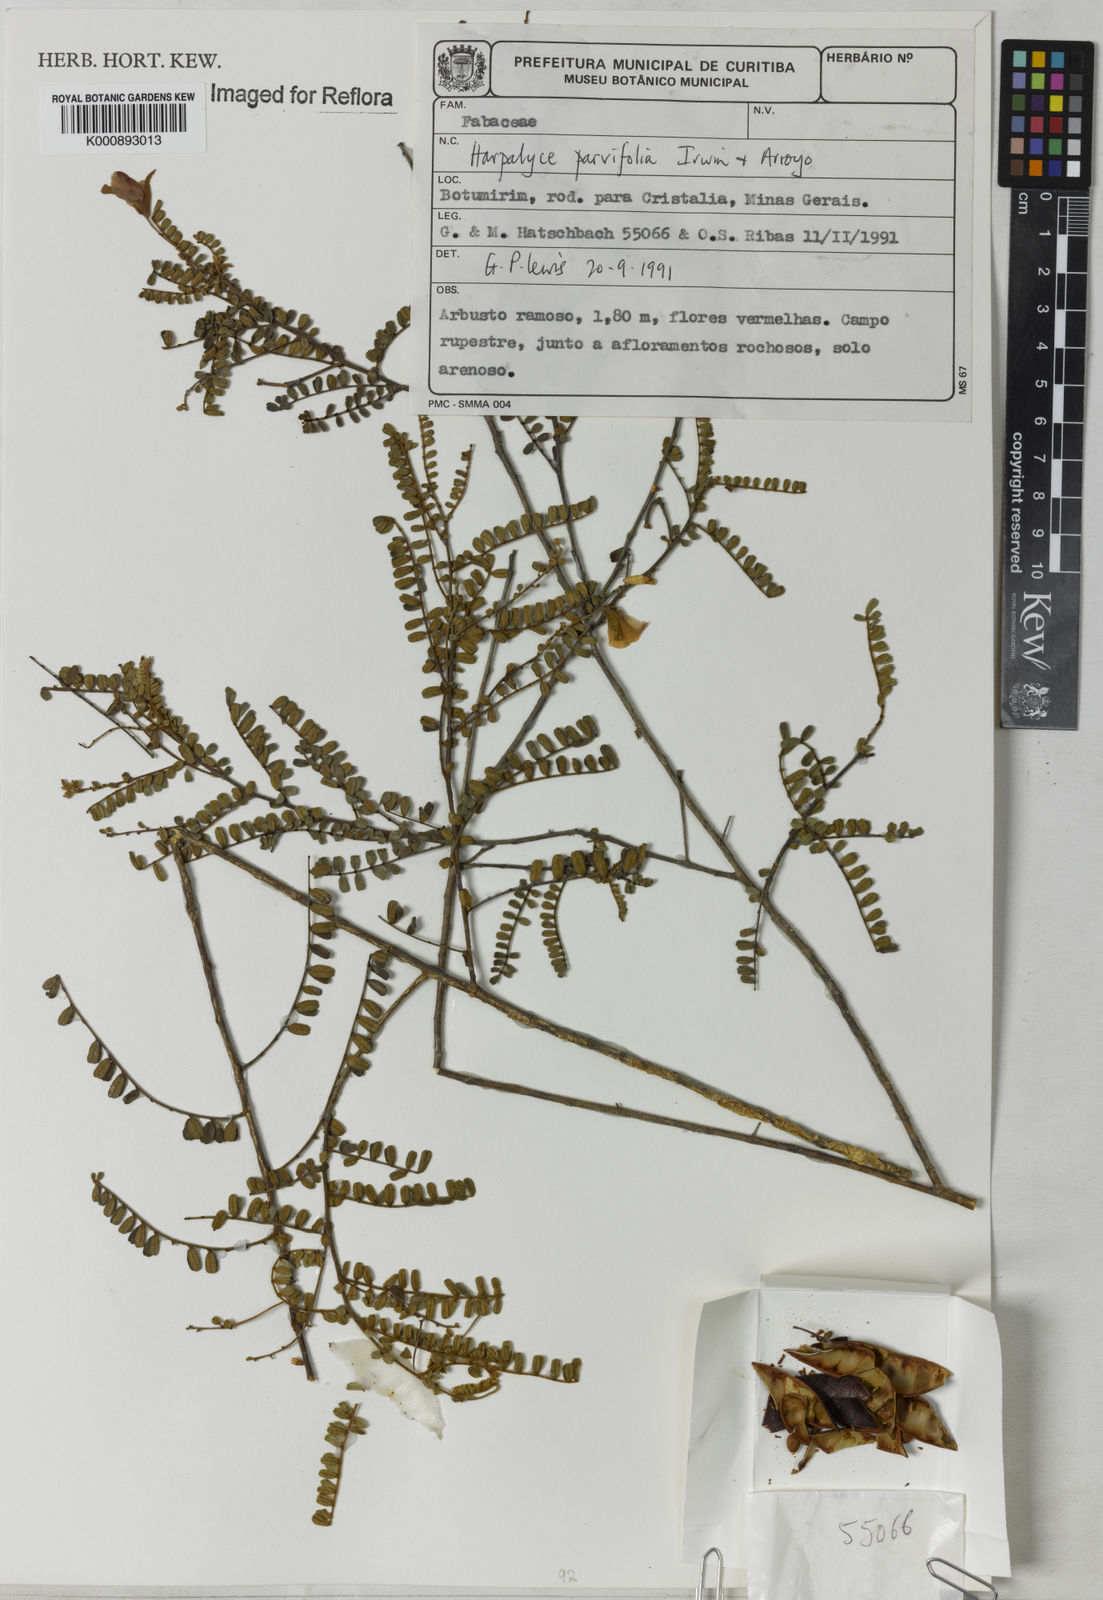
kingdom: Plantae
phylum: Tracheophyta
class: Magnoliopsida
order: Fabales
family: Fabaceae
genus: Harpalyce
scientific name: Harpalyce parvifolia
